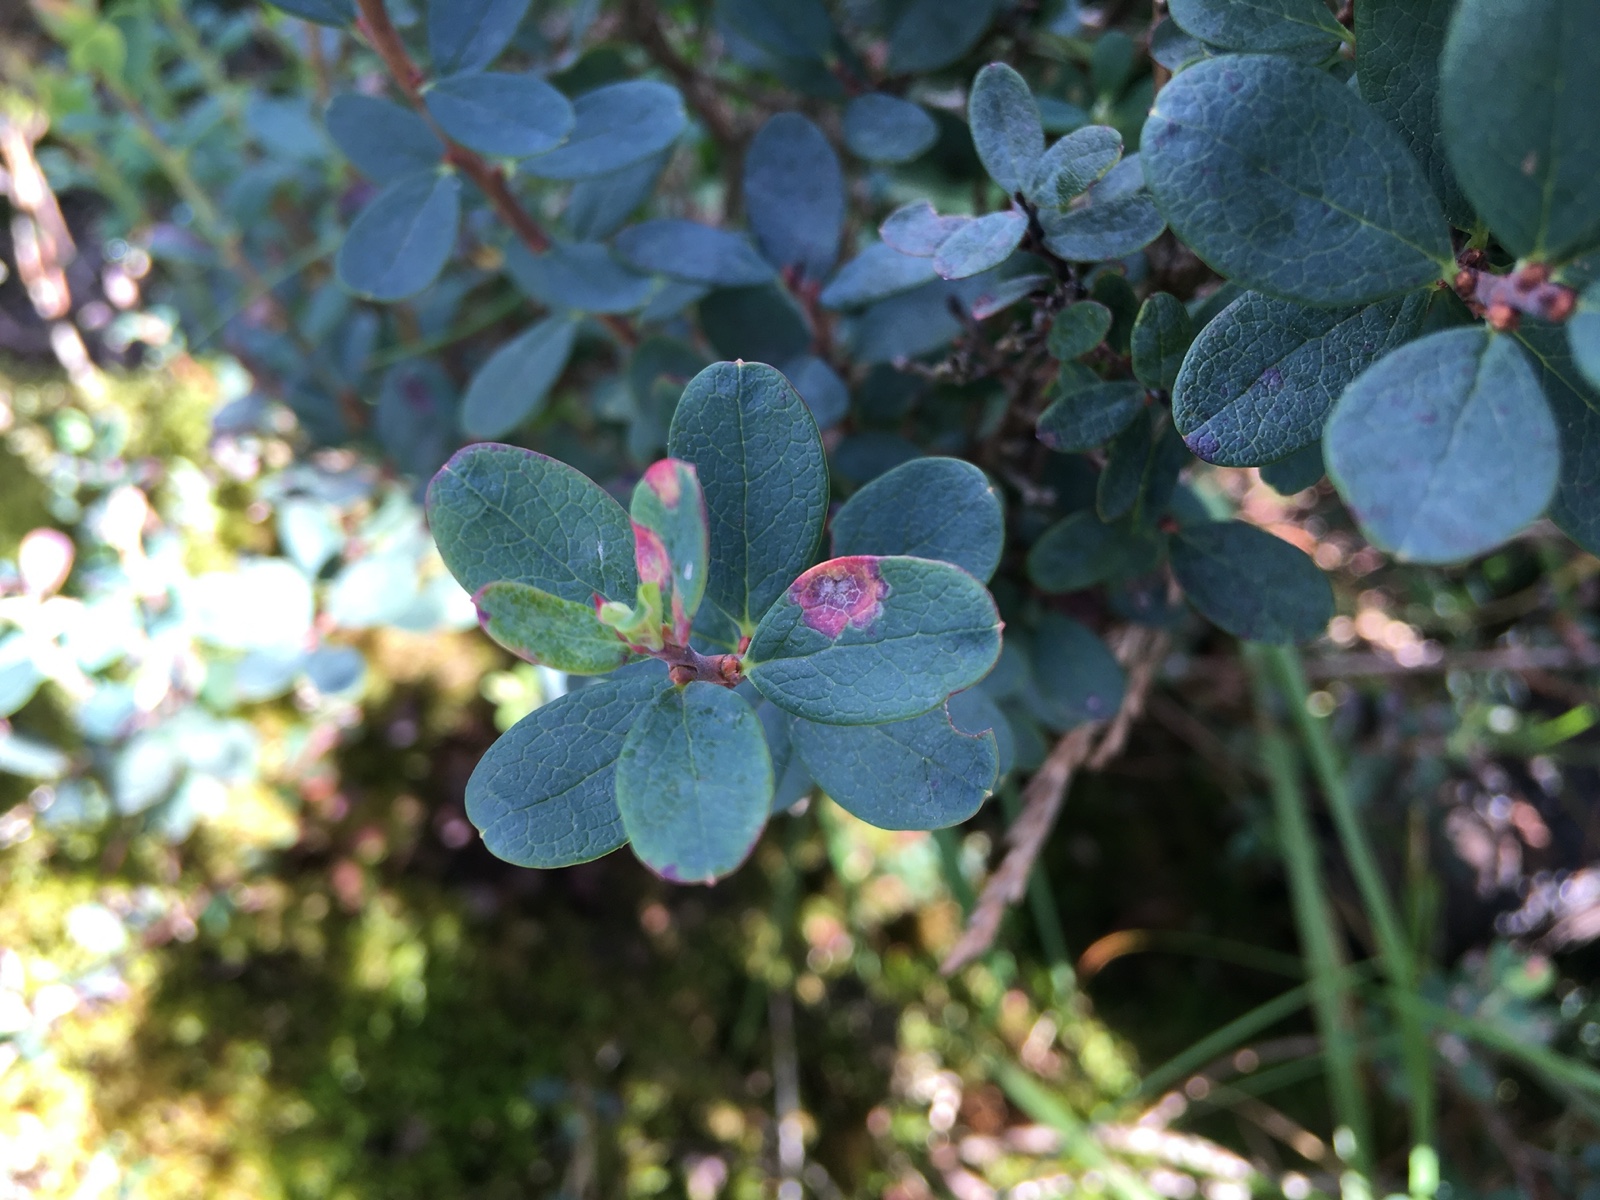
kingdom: Fungi
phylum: Basidiomycota
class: Exobasidiomycetes
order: Exobasidiales
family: Exobasidiaceae
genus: Exobasidium
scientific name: Exobasidium pachysporum
